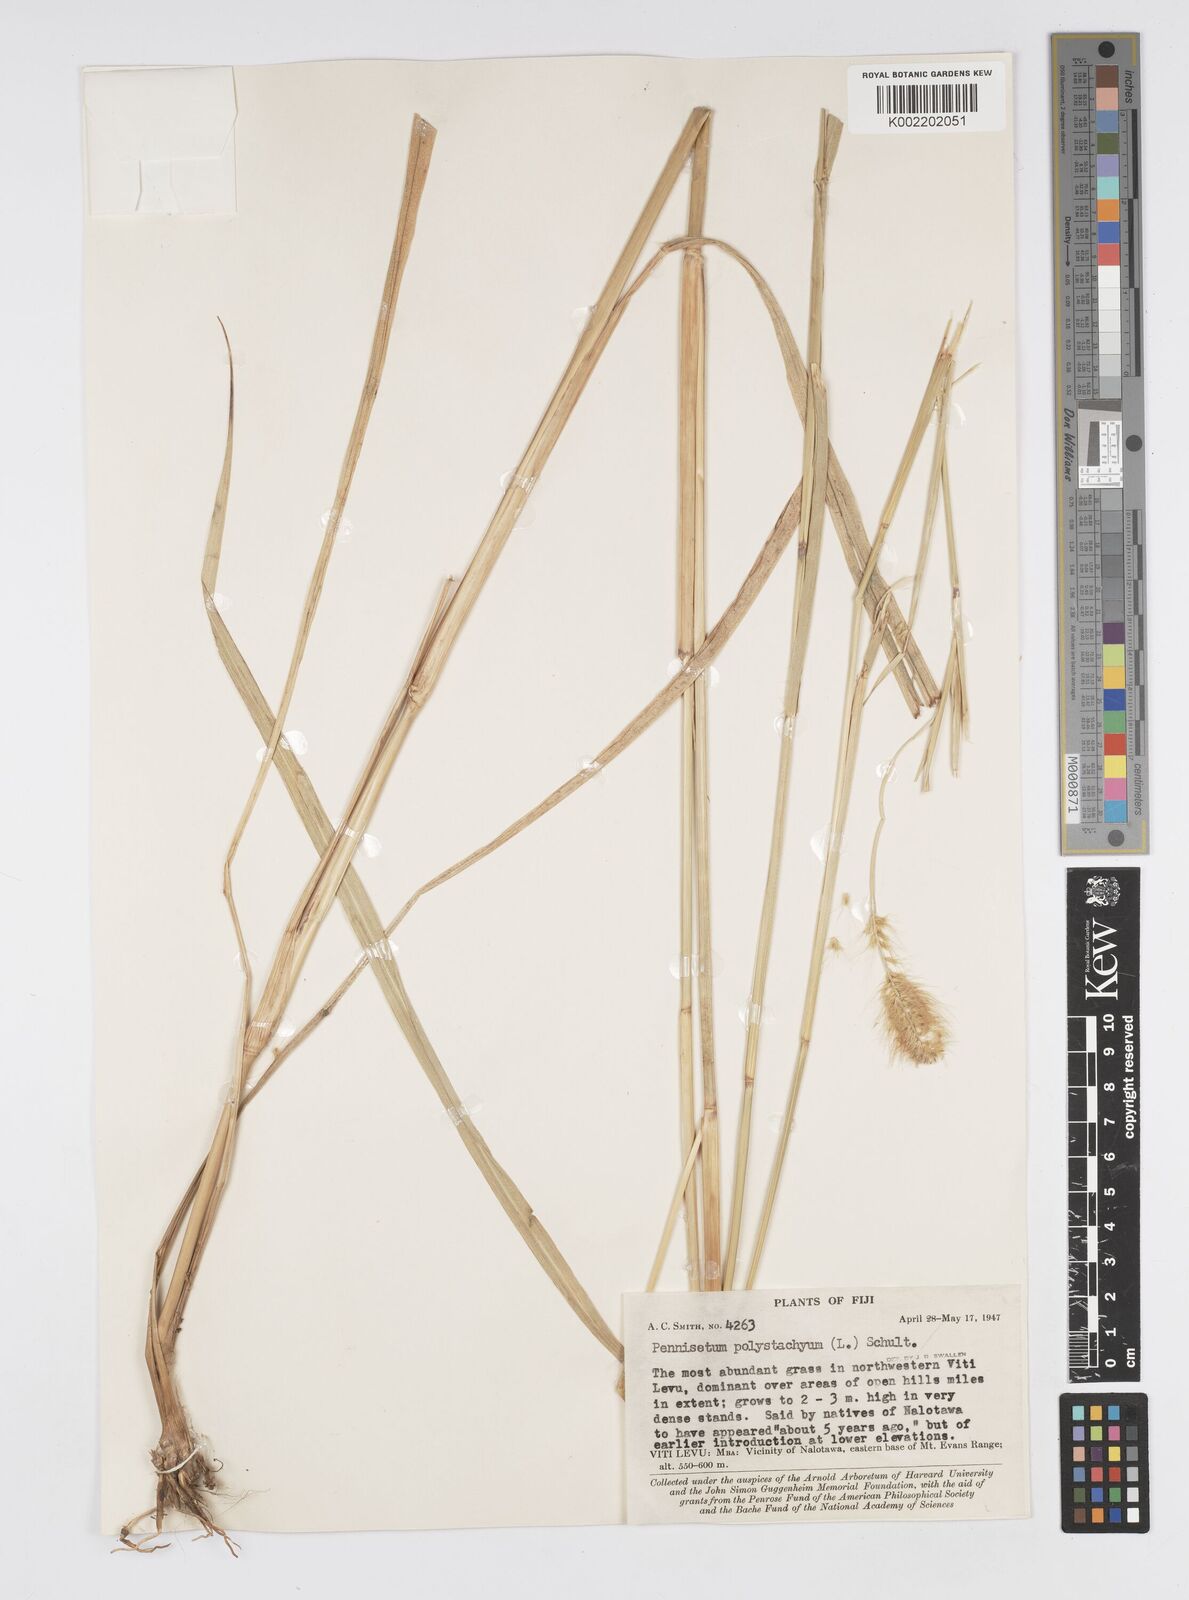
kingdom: Plantae
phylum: Tracheophyta
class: Liliopsida
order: Poales
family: Poaceae
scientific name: Poaceae
